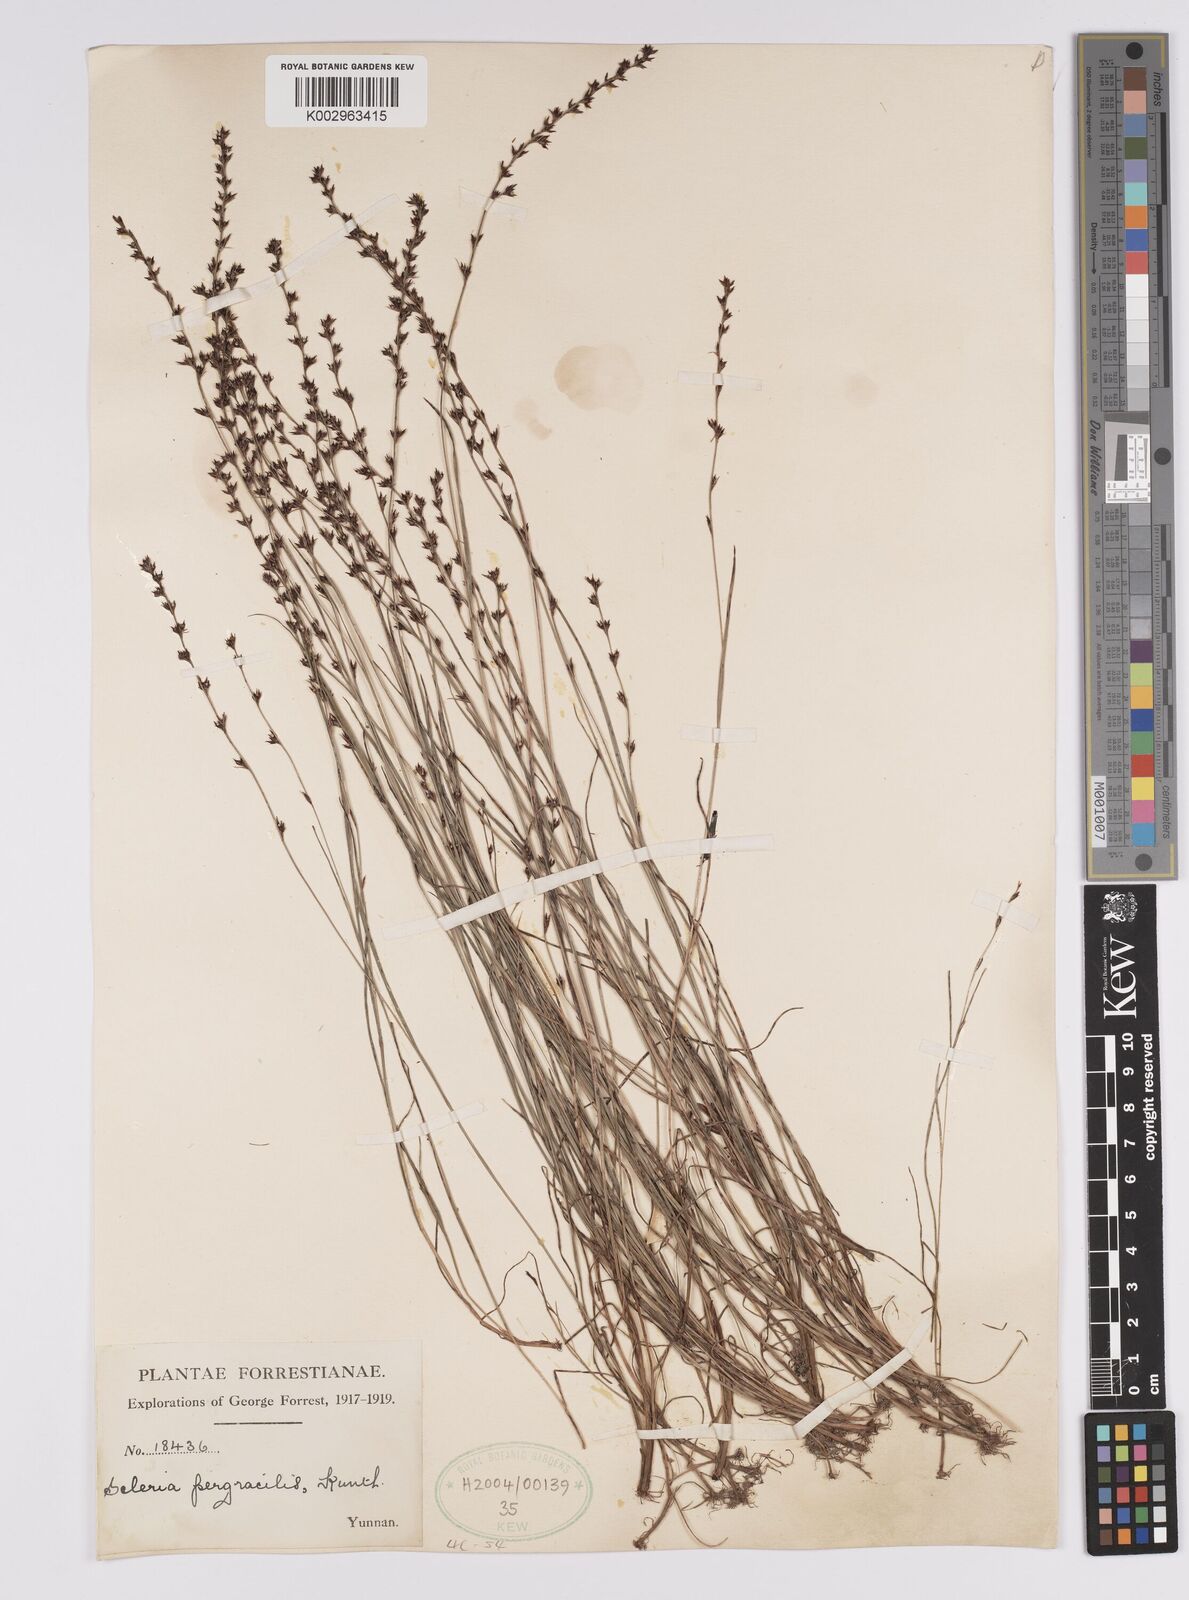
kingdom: Plantae
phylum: Tracheophyta
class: Liliopsida
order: Poales
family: Cyperaceae
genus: Scleria
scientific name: Scleria pergracilis
